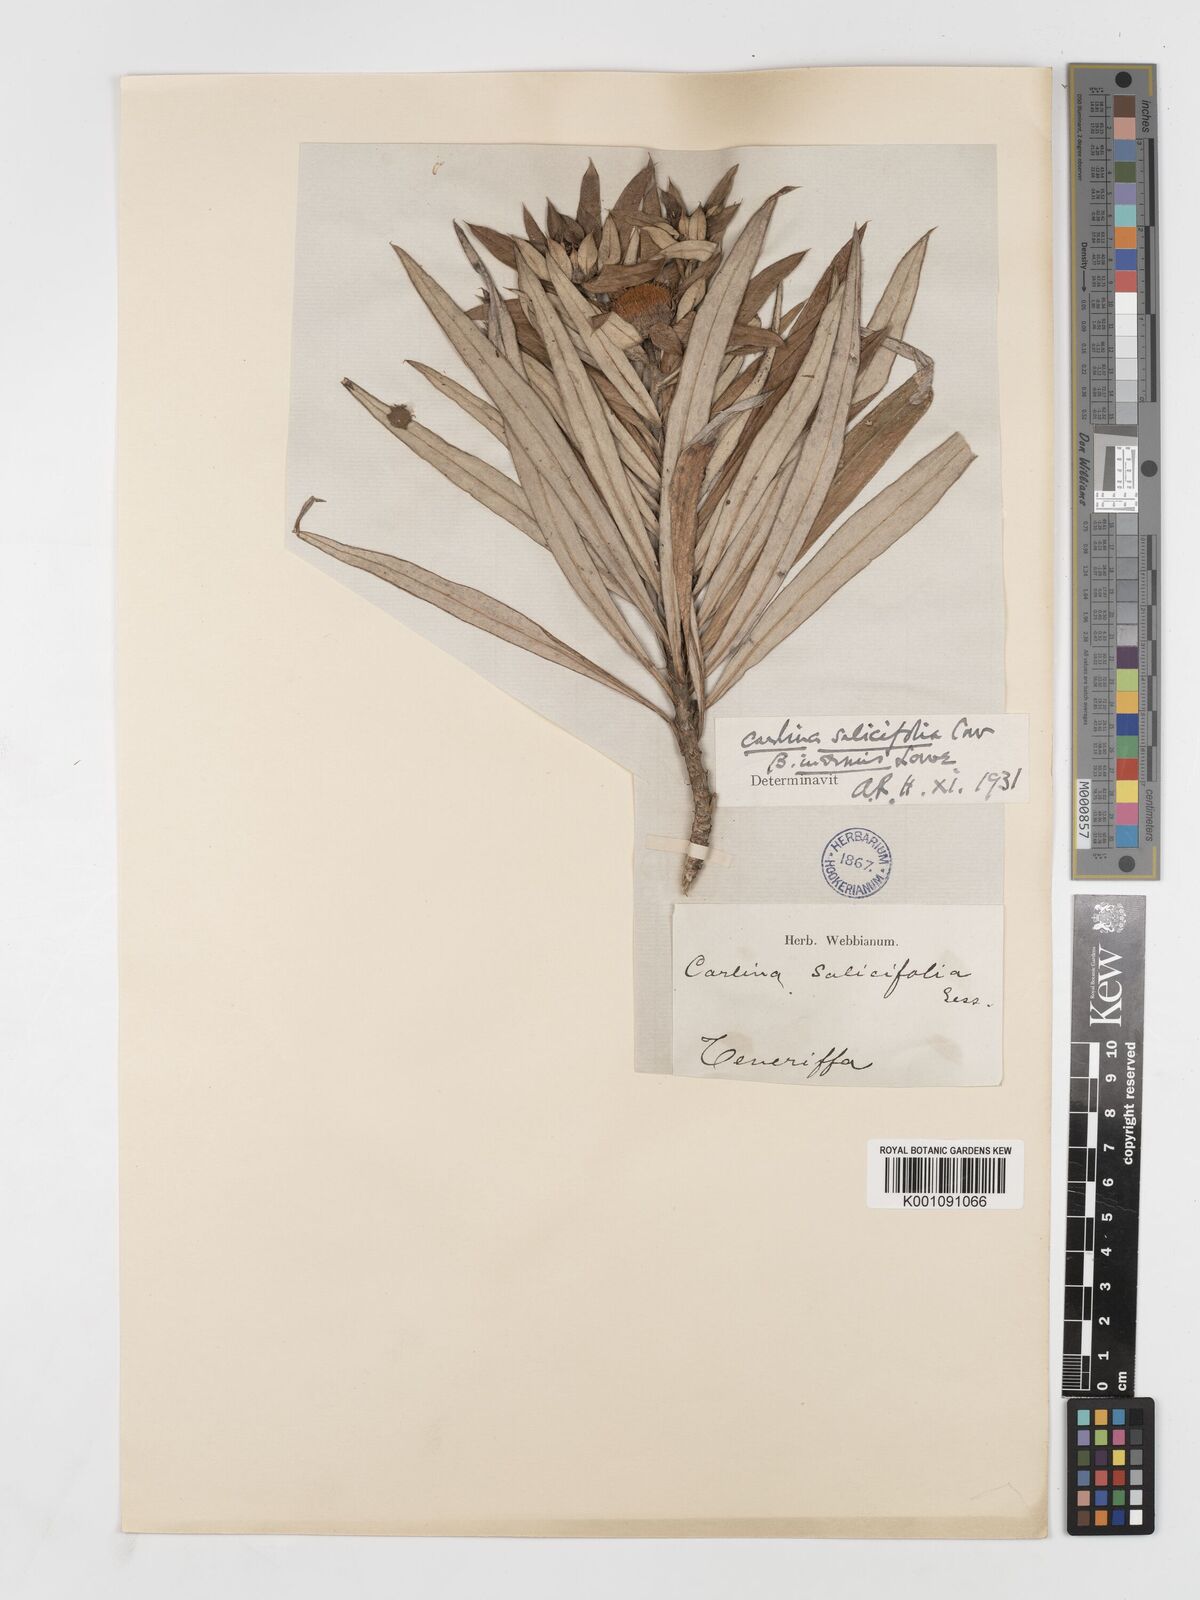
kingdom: Plantae
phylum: Tracheophyta
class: Magnoliopsida
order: Asterales
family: Asteraceae
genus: Carlina
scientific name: Carlina salicifolia
